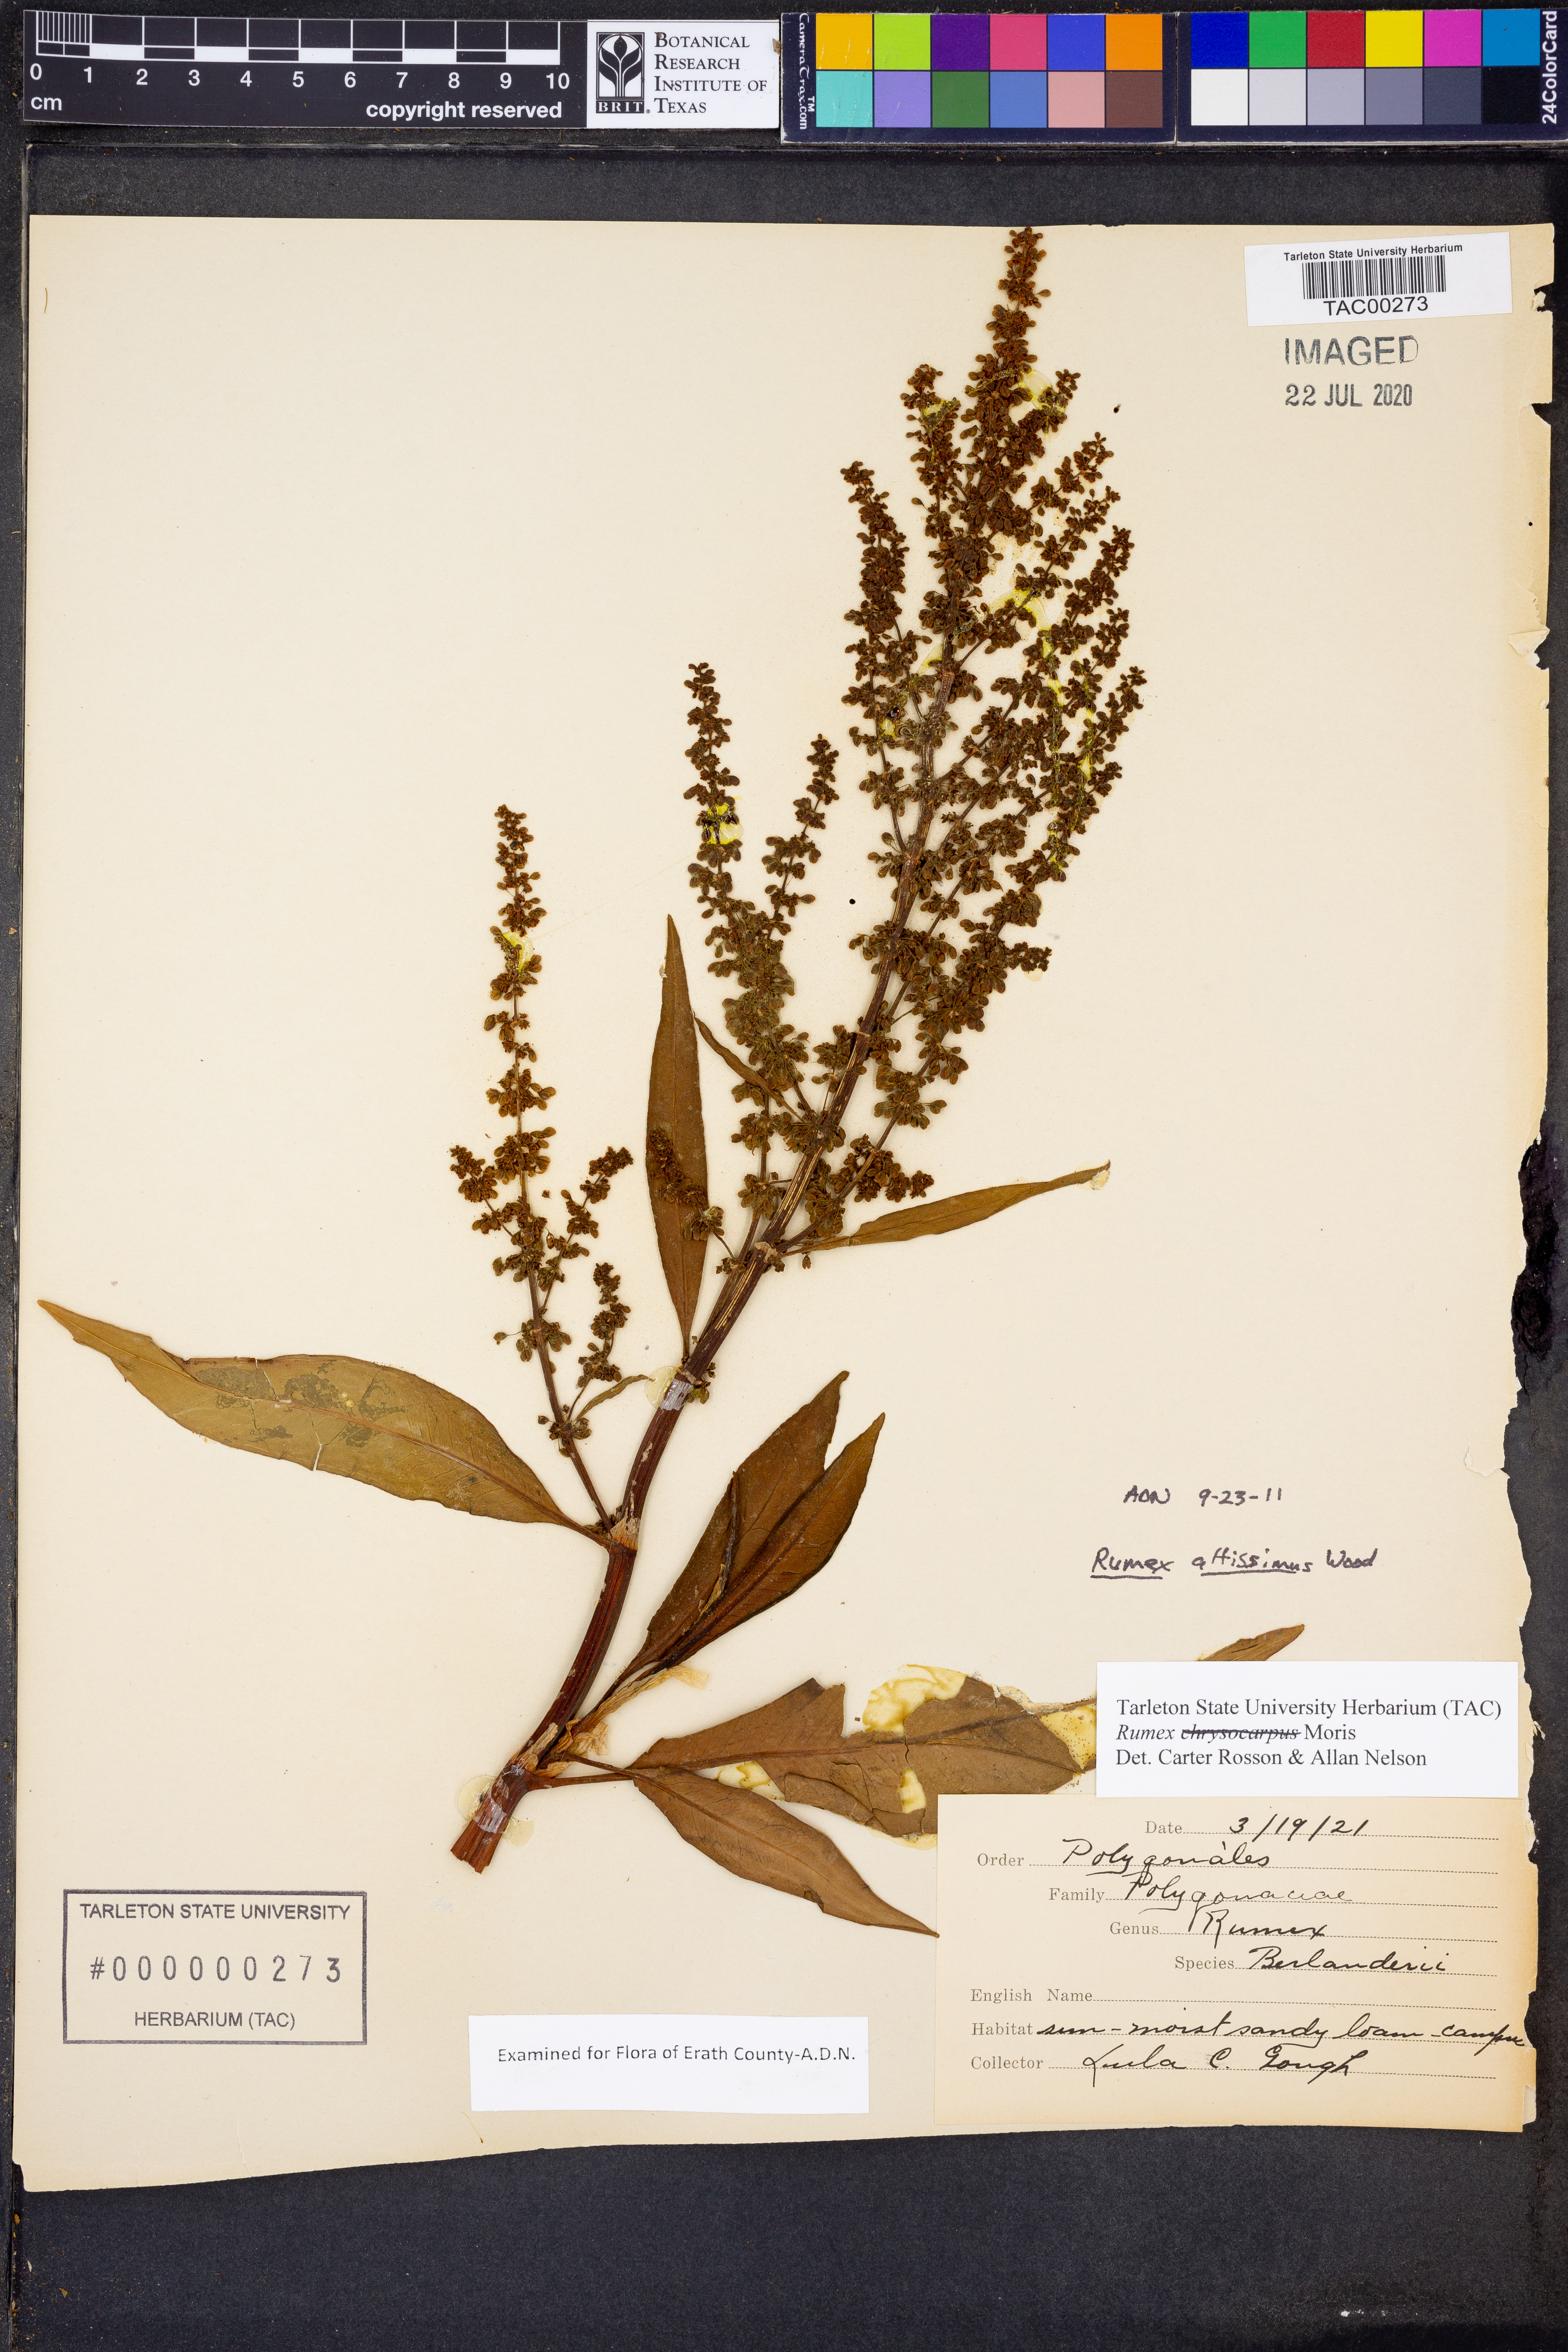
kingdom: Plantae
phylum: Tracheophyta
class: Magnoliopsida
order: Caryophyllales
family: Polygonaceae
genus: Rumex
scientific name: Rumex altissimus
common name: Smooth dock
